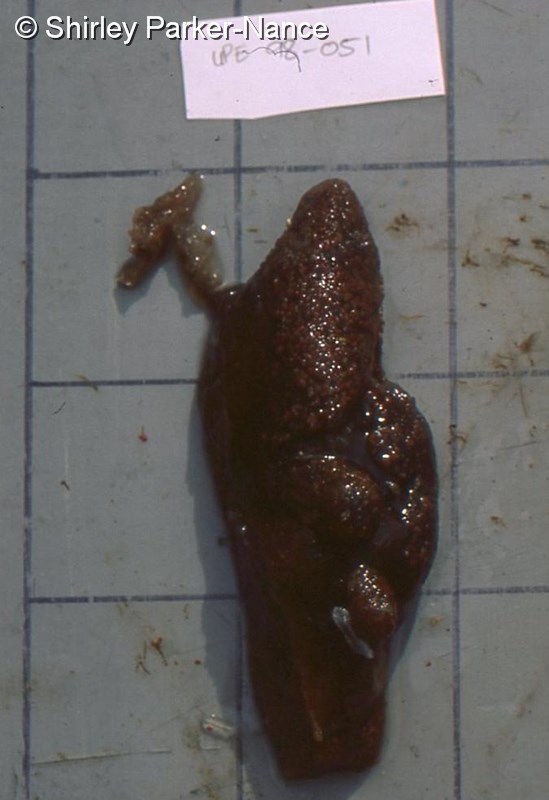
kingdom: Animalia
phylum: Chordata
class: Ascidiacea
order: Aplousobranchia
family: Polyclinidae
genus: Aplidium
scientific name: Aplidium
